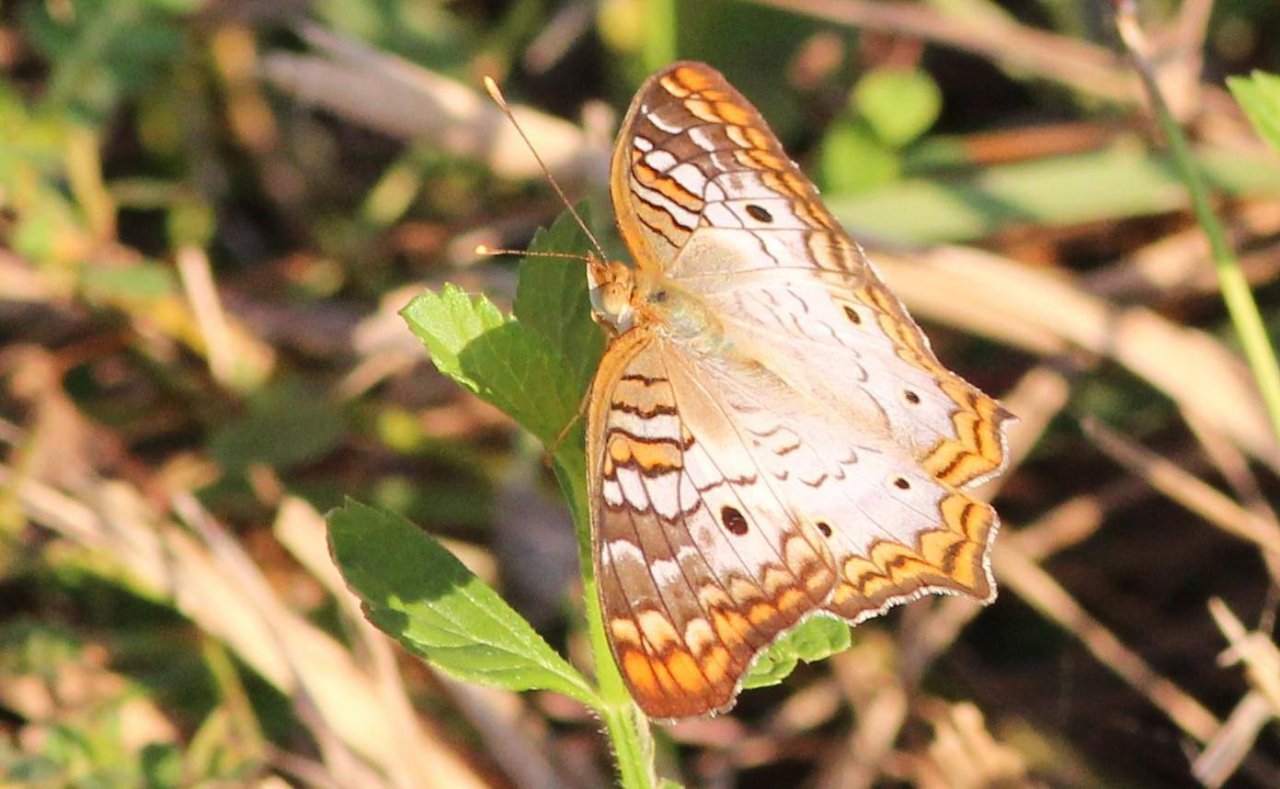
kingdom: Animalia
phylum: Arthropoda
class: Insecta
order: Lepidoptera
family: Nymphalidae
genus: Anartia
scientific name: Anartia jatrophae
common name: White Peacock
